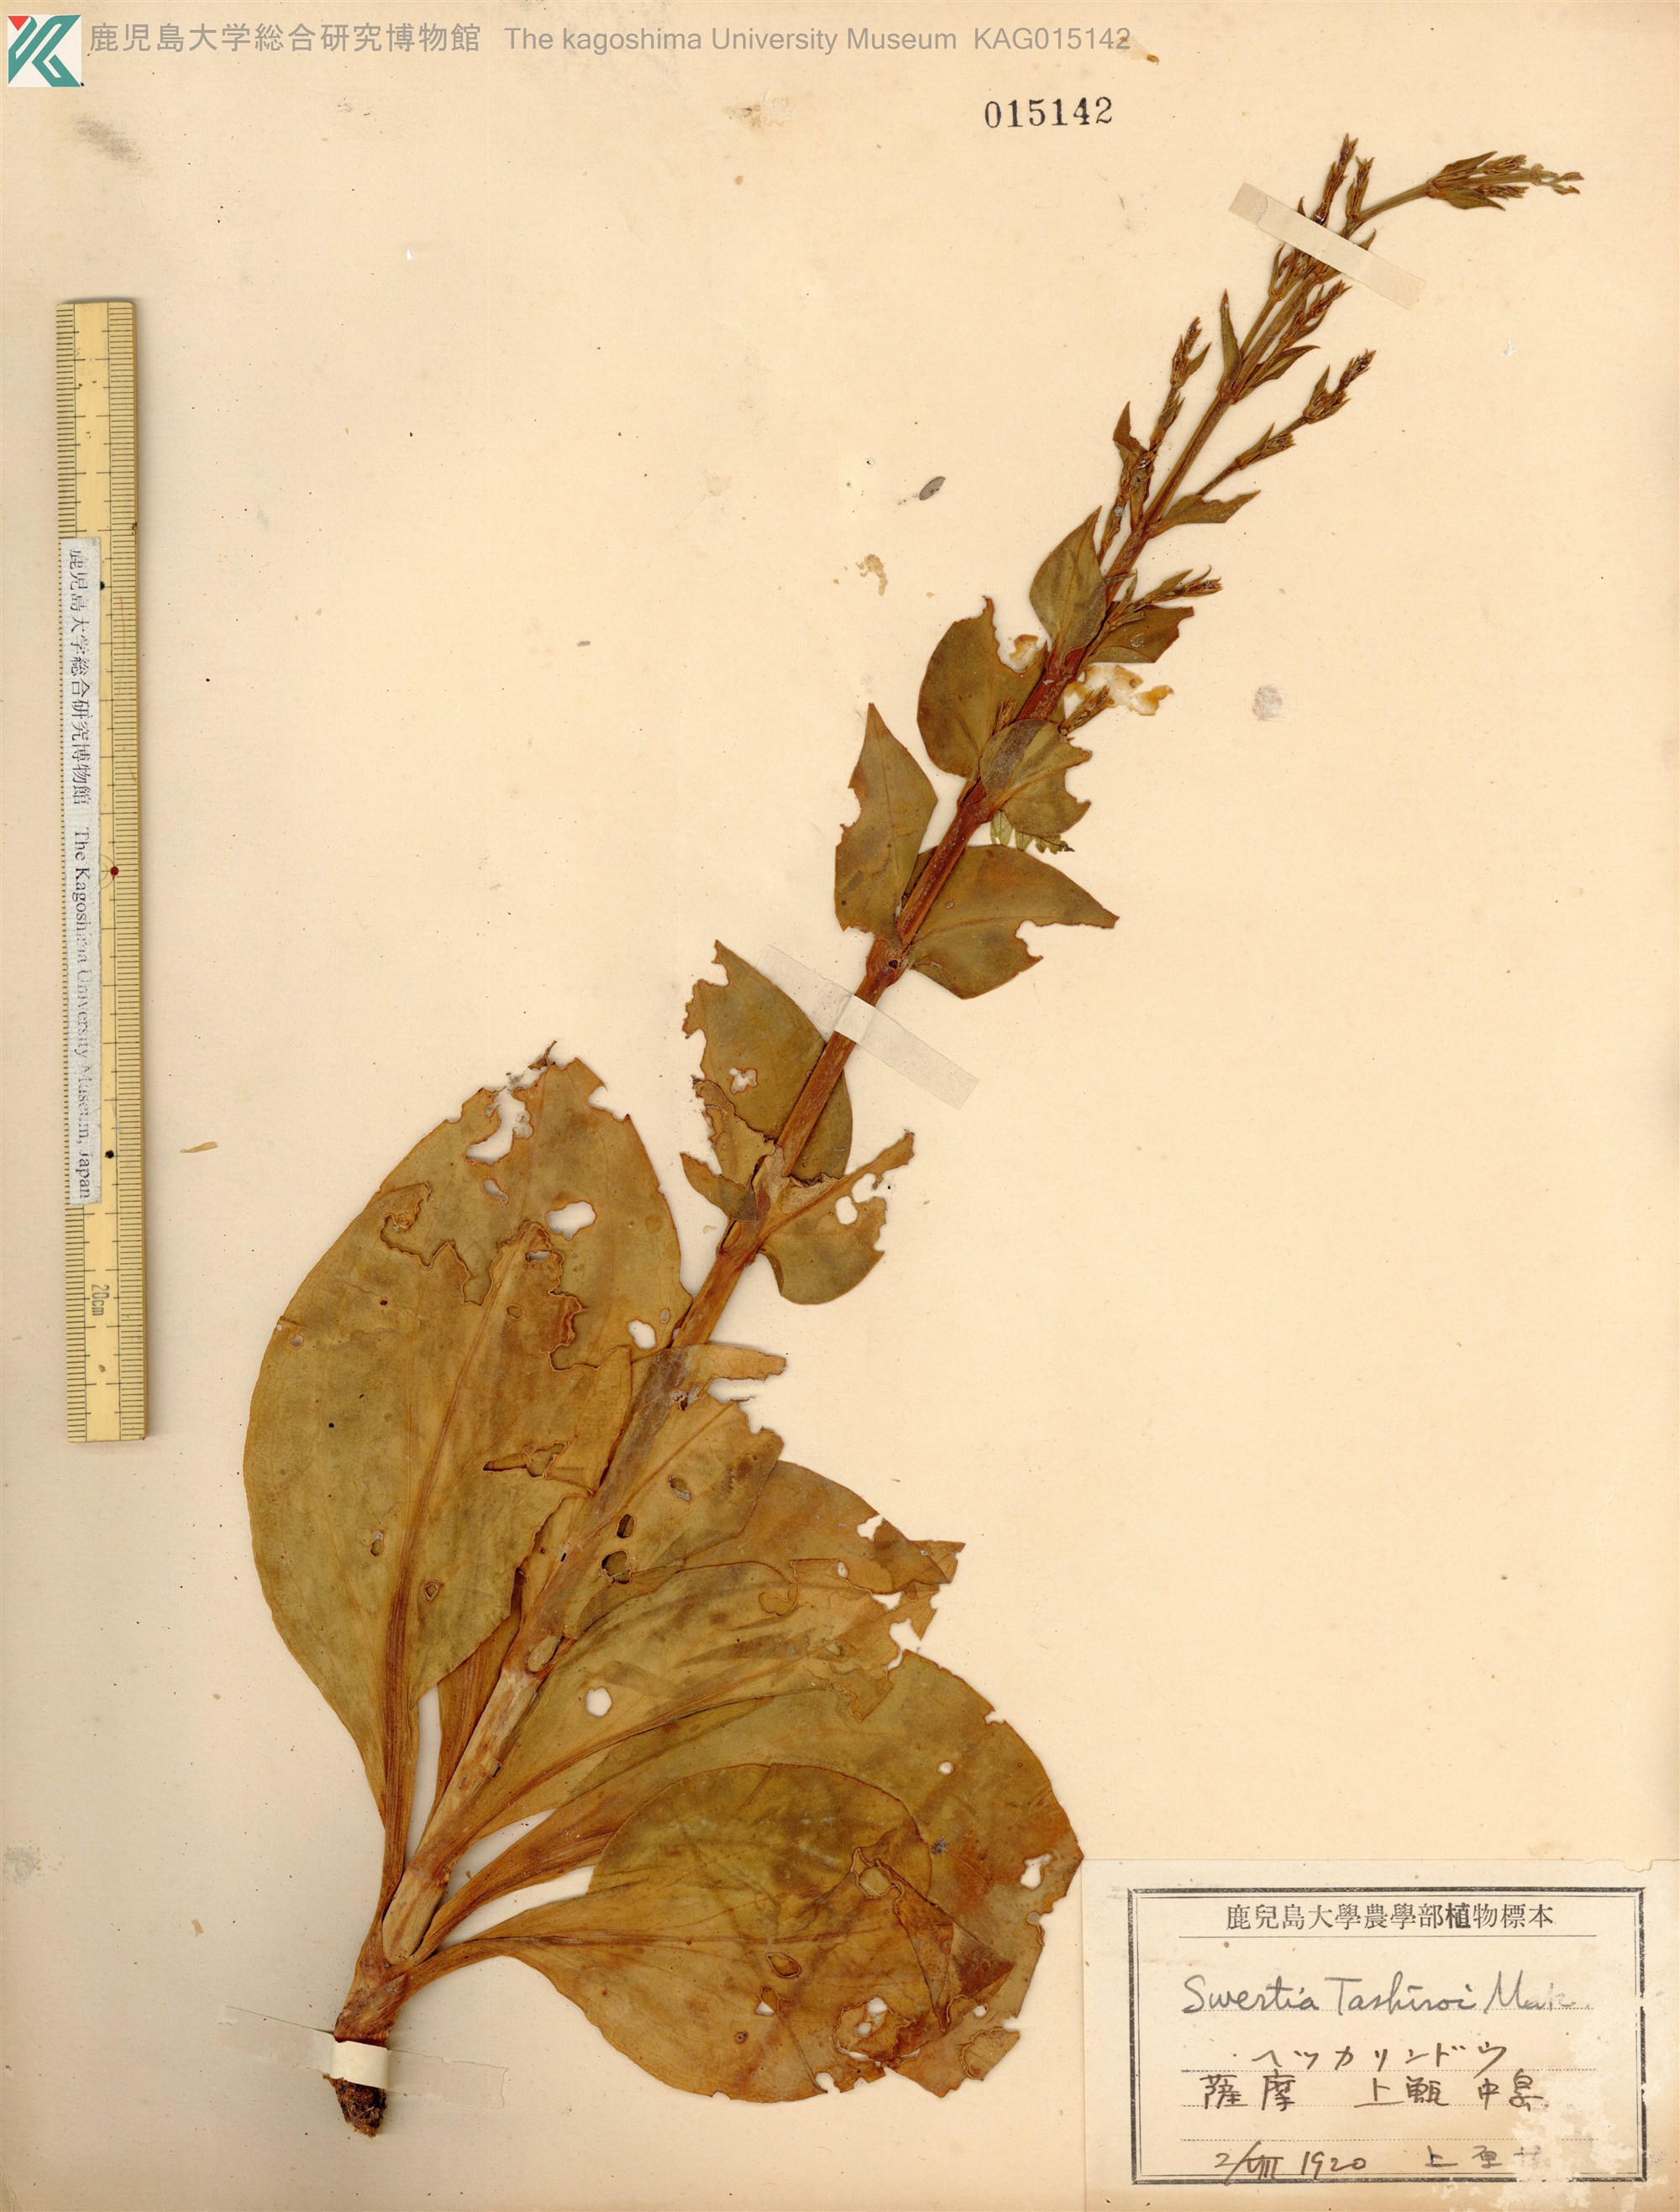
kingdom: Plantae
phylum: Tracheophyta
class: Magnoliopsida
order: Gentianales
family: Gentianaceae
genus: Swertia
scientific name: Swertia tashiroi
